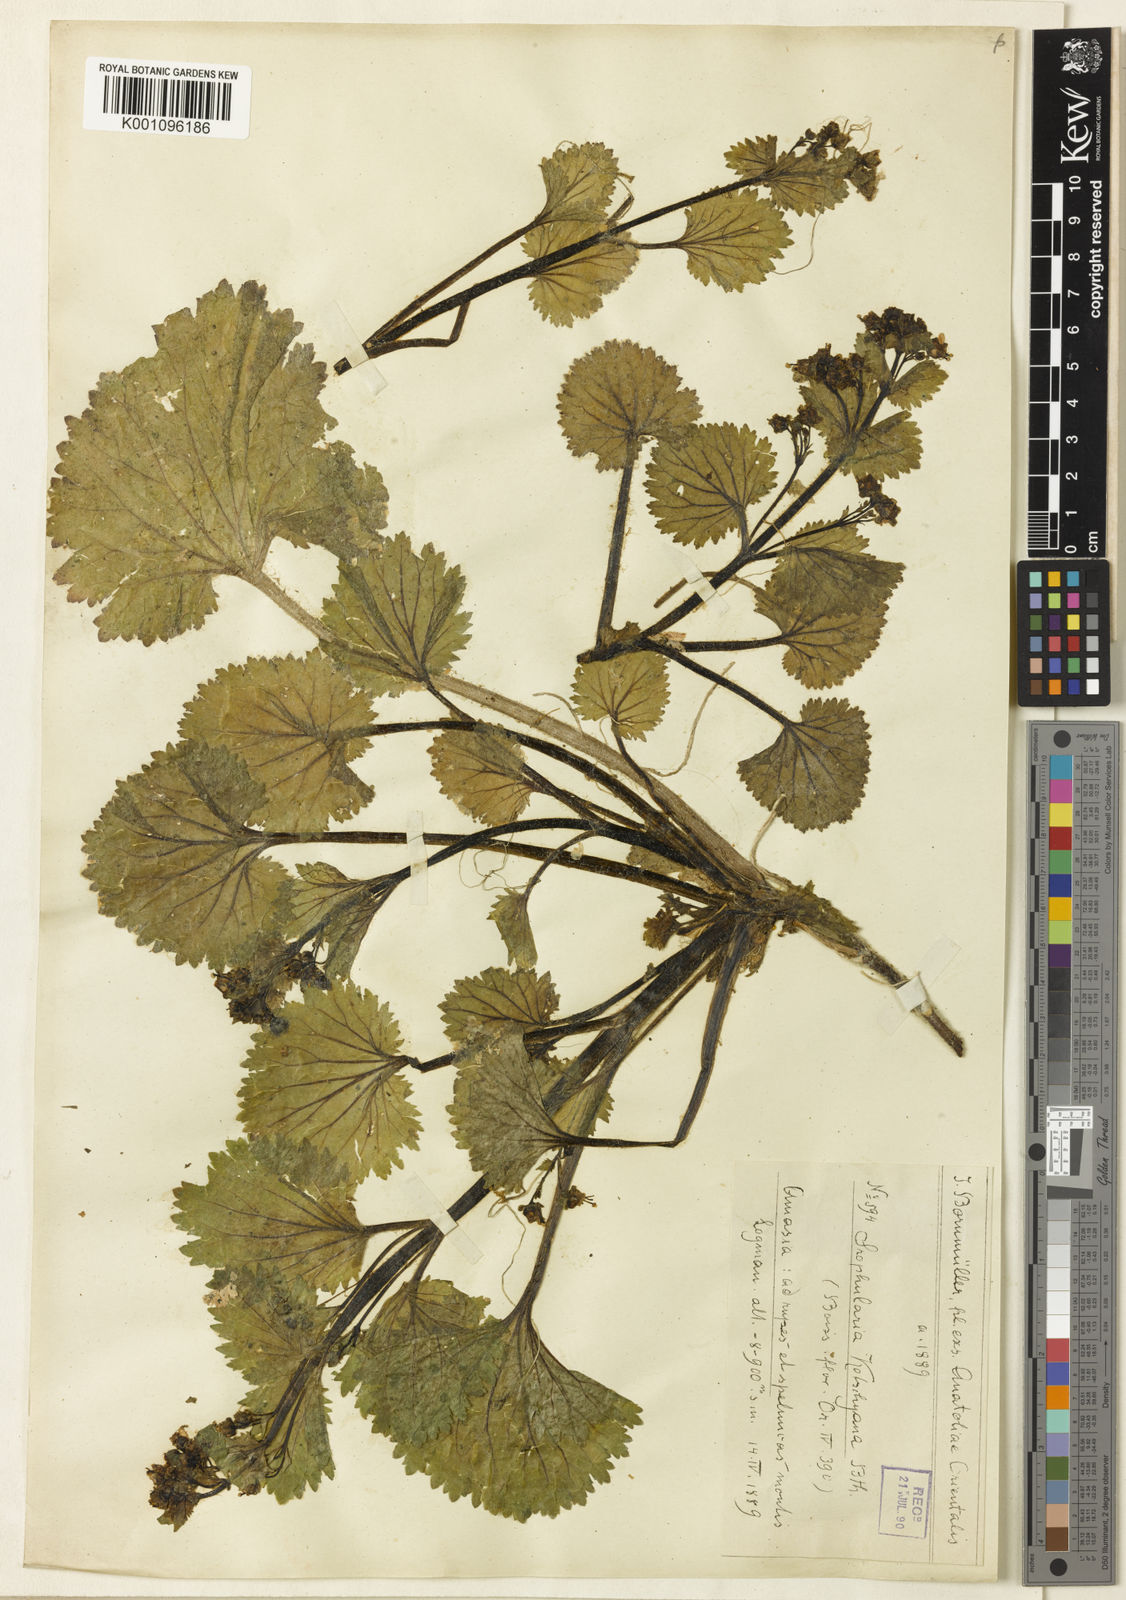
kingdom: Plantae
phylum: Tracheophyta
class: Magnoliopsida
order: Lamiales
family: Scrophulariaceae
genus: Scrophularia
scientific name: Scrophularia kotschyana
